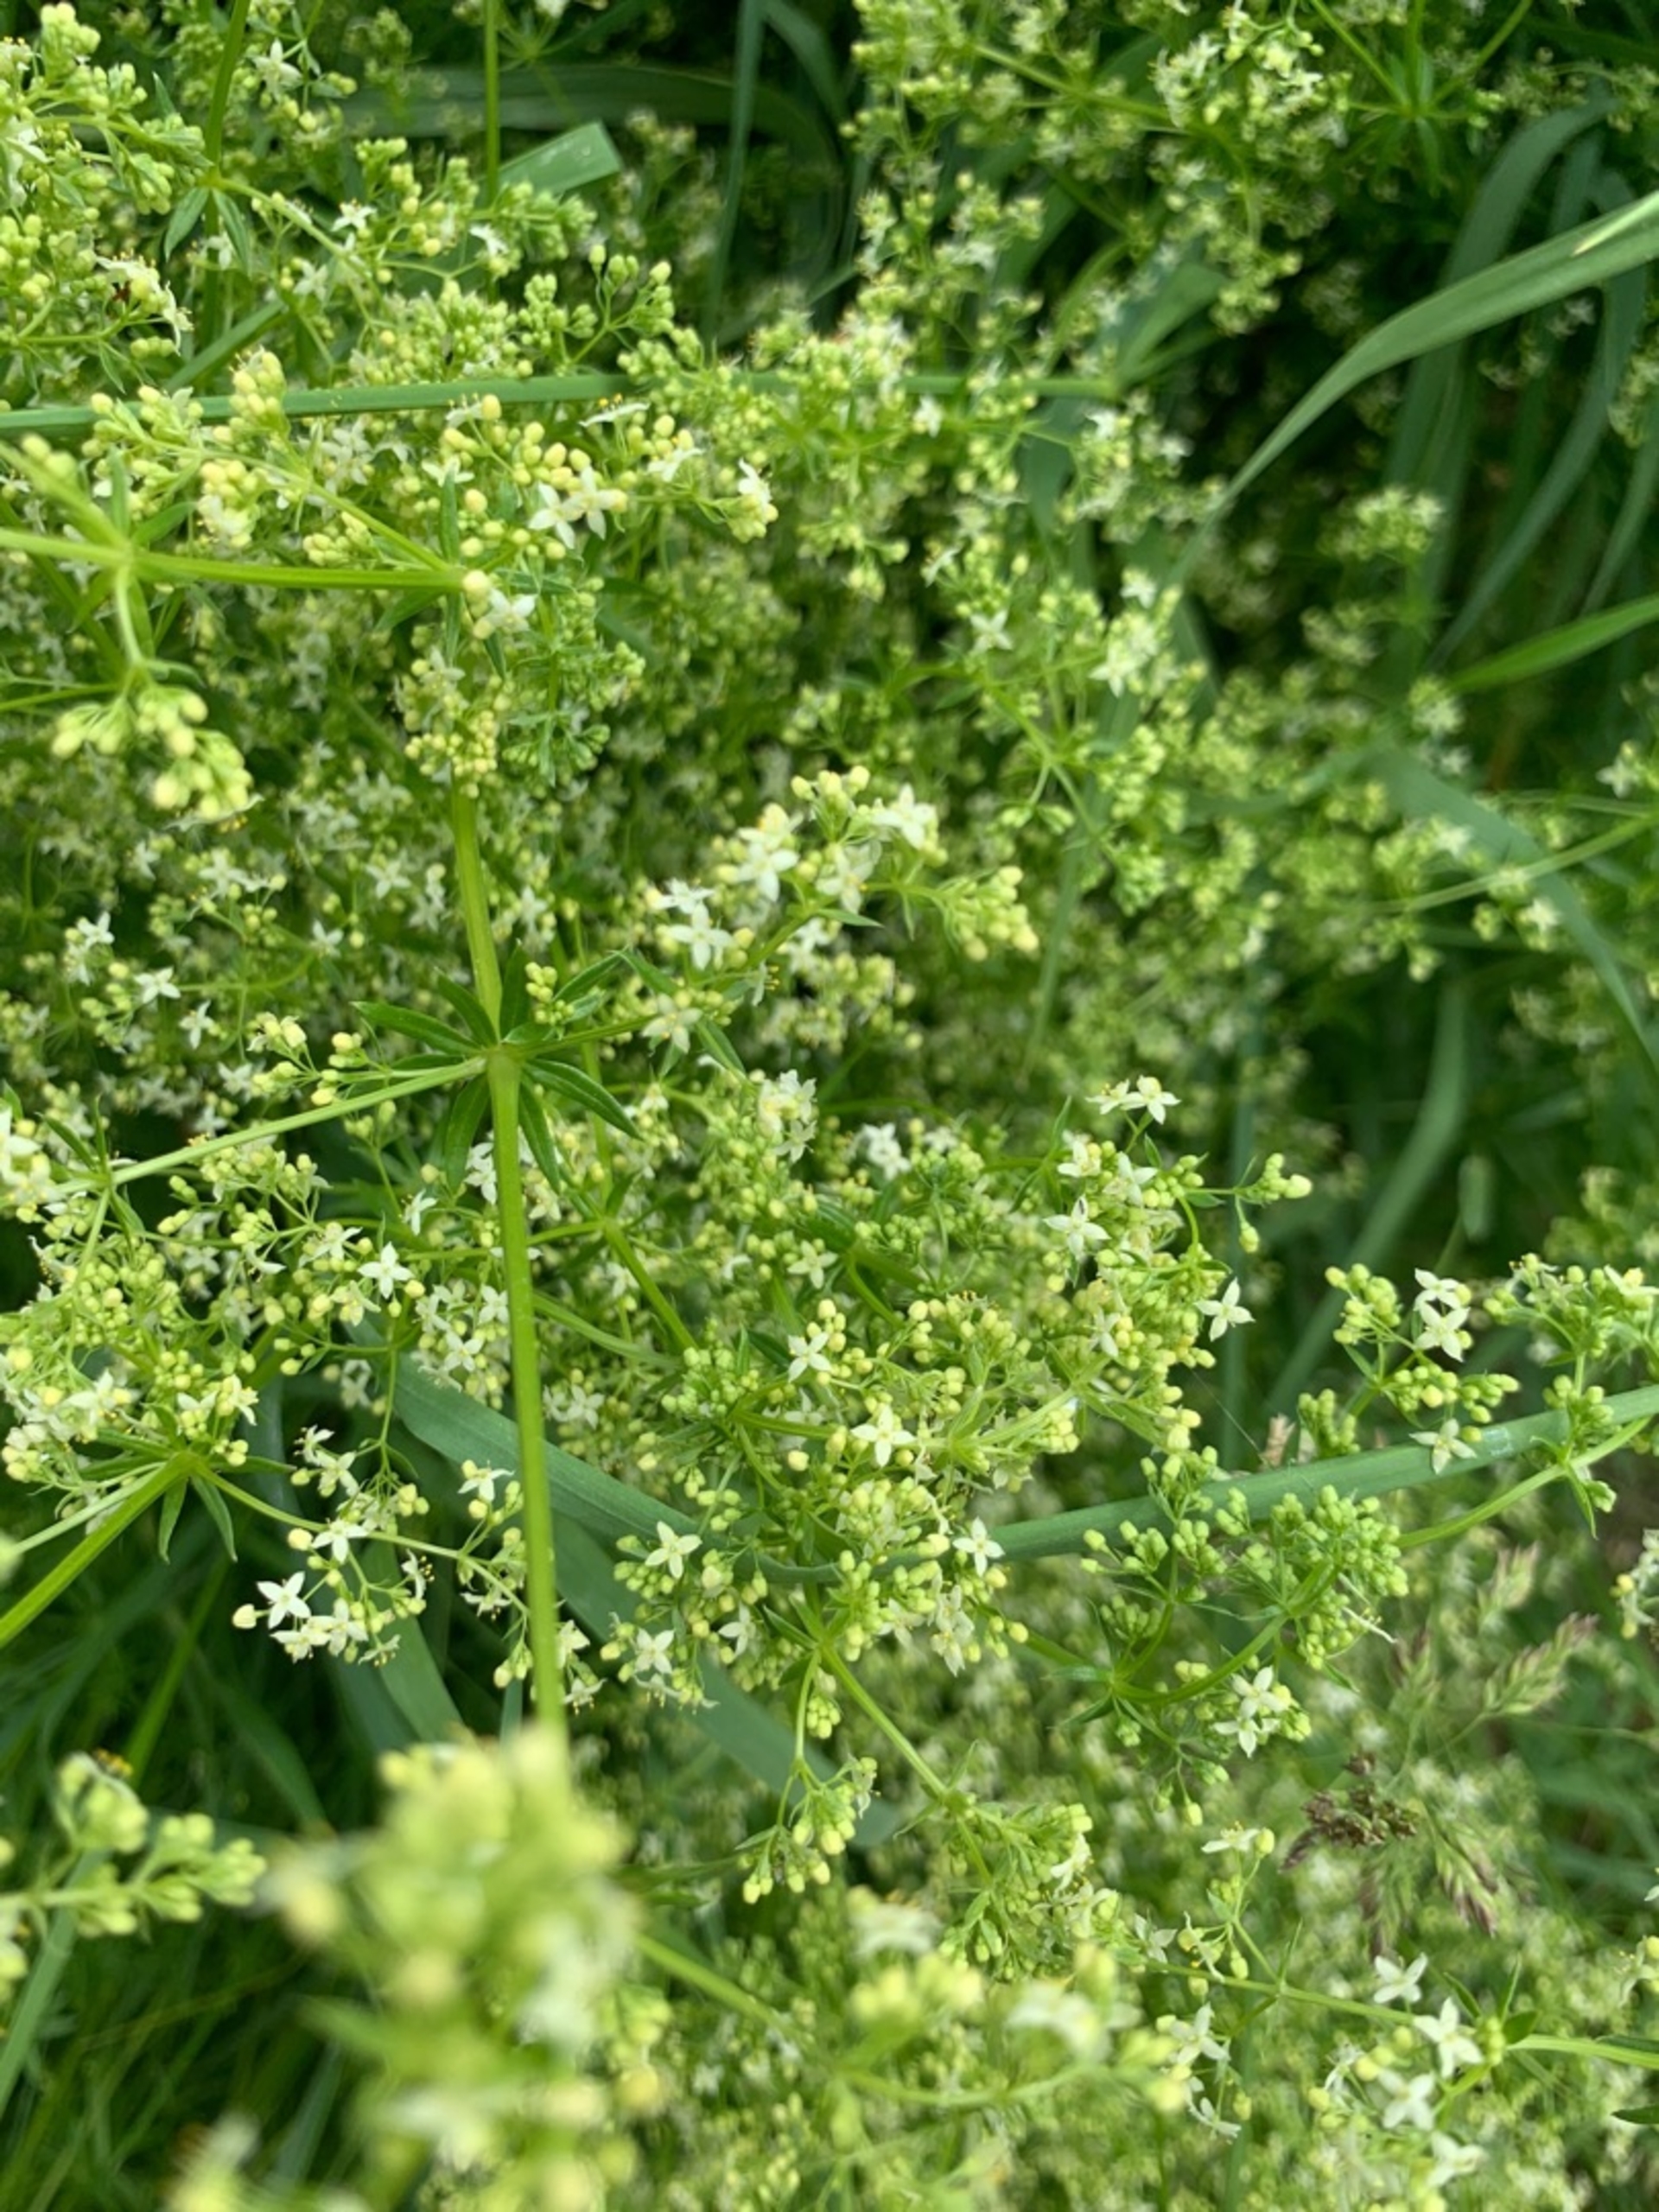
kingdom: Plantae
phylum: Tracheophyta
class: Magnoliopsida
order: Gentianales
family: Rubiaceae
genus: Galium
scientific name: Galium mollugo
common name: Hvid snerre
